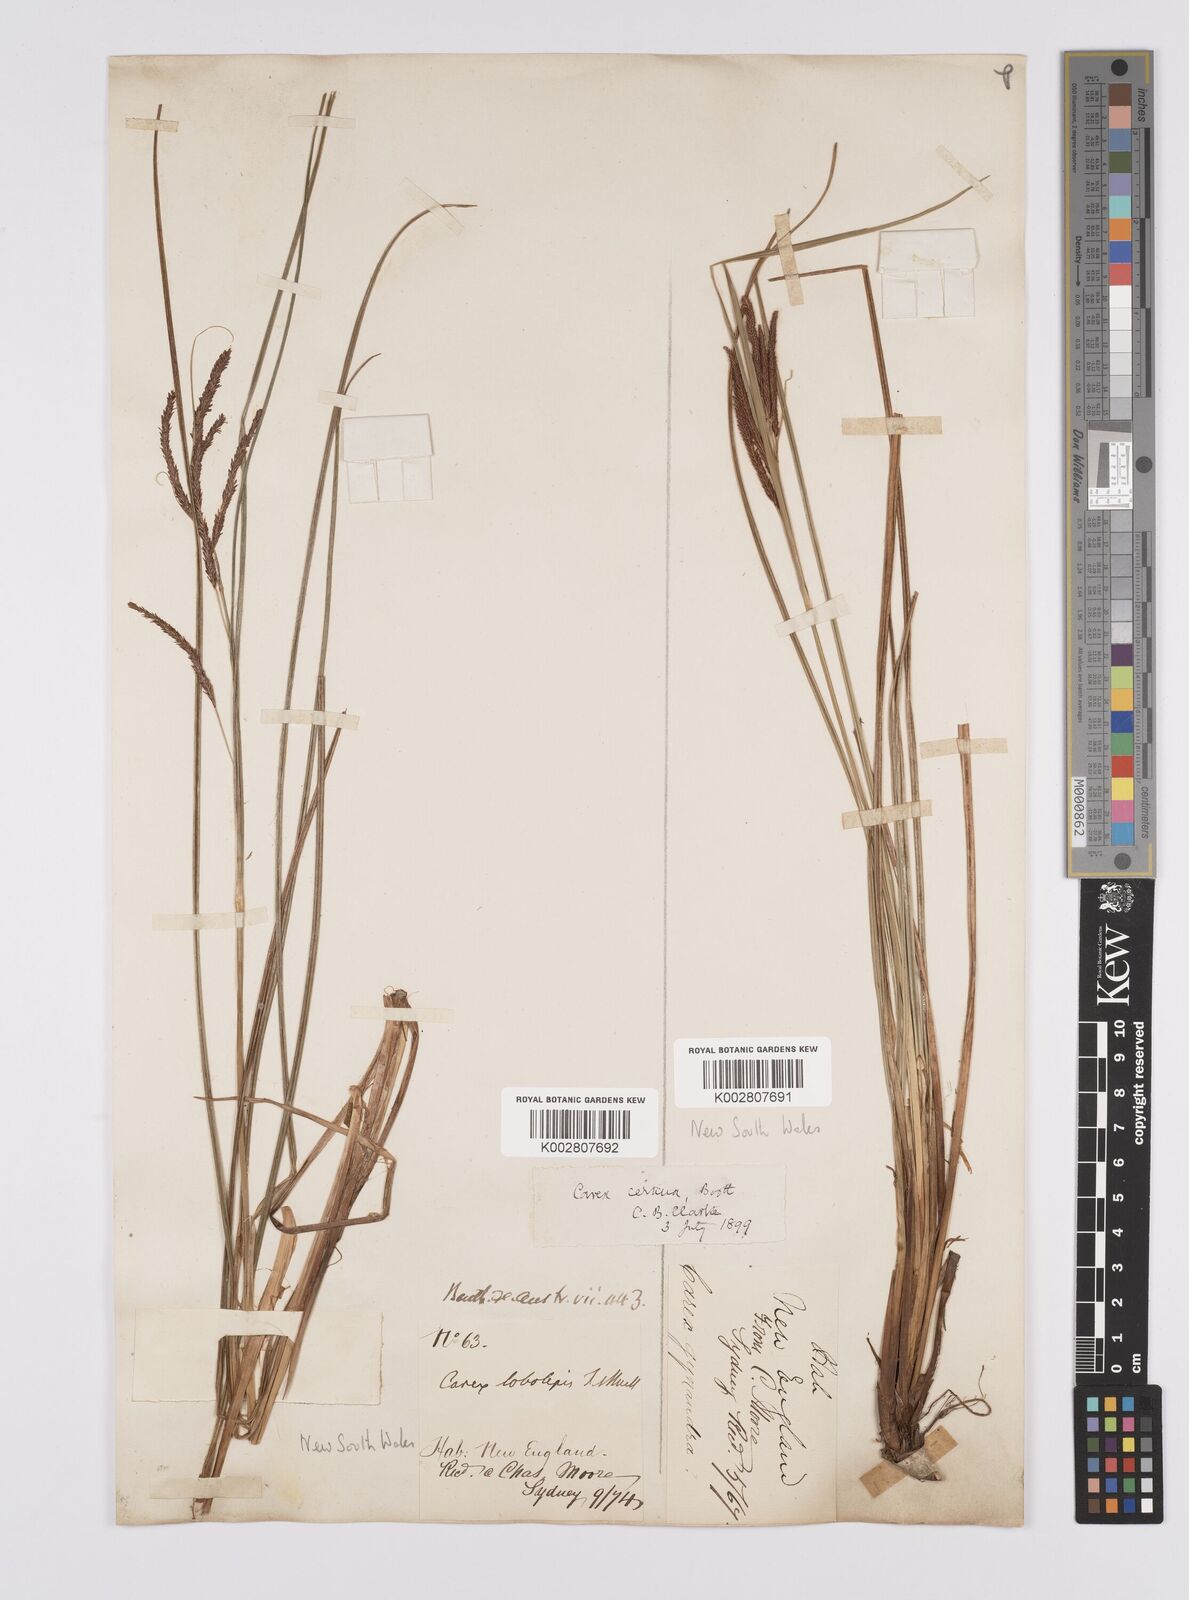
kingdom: Plantae
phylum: Tracheophyta
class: Liliopsida
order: Poales
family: Cyperaceae
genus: Carex
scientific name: Carex lobolepis
